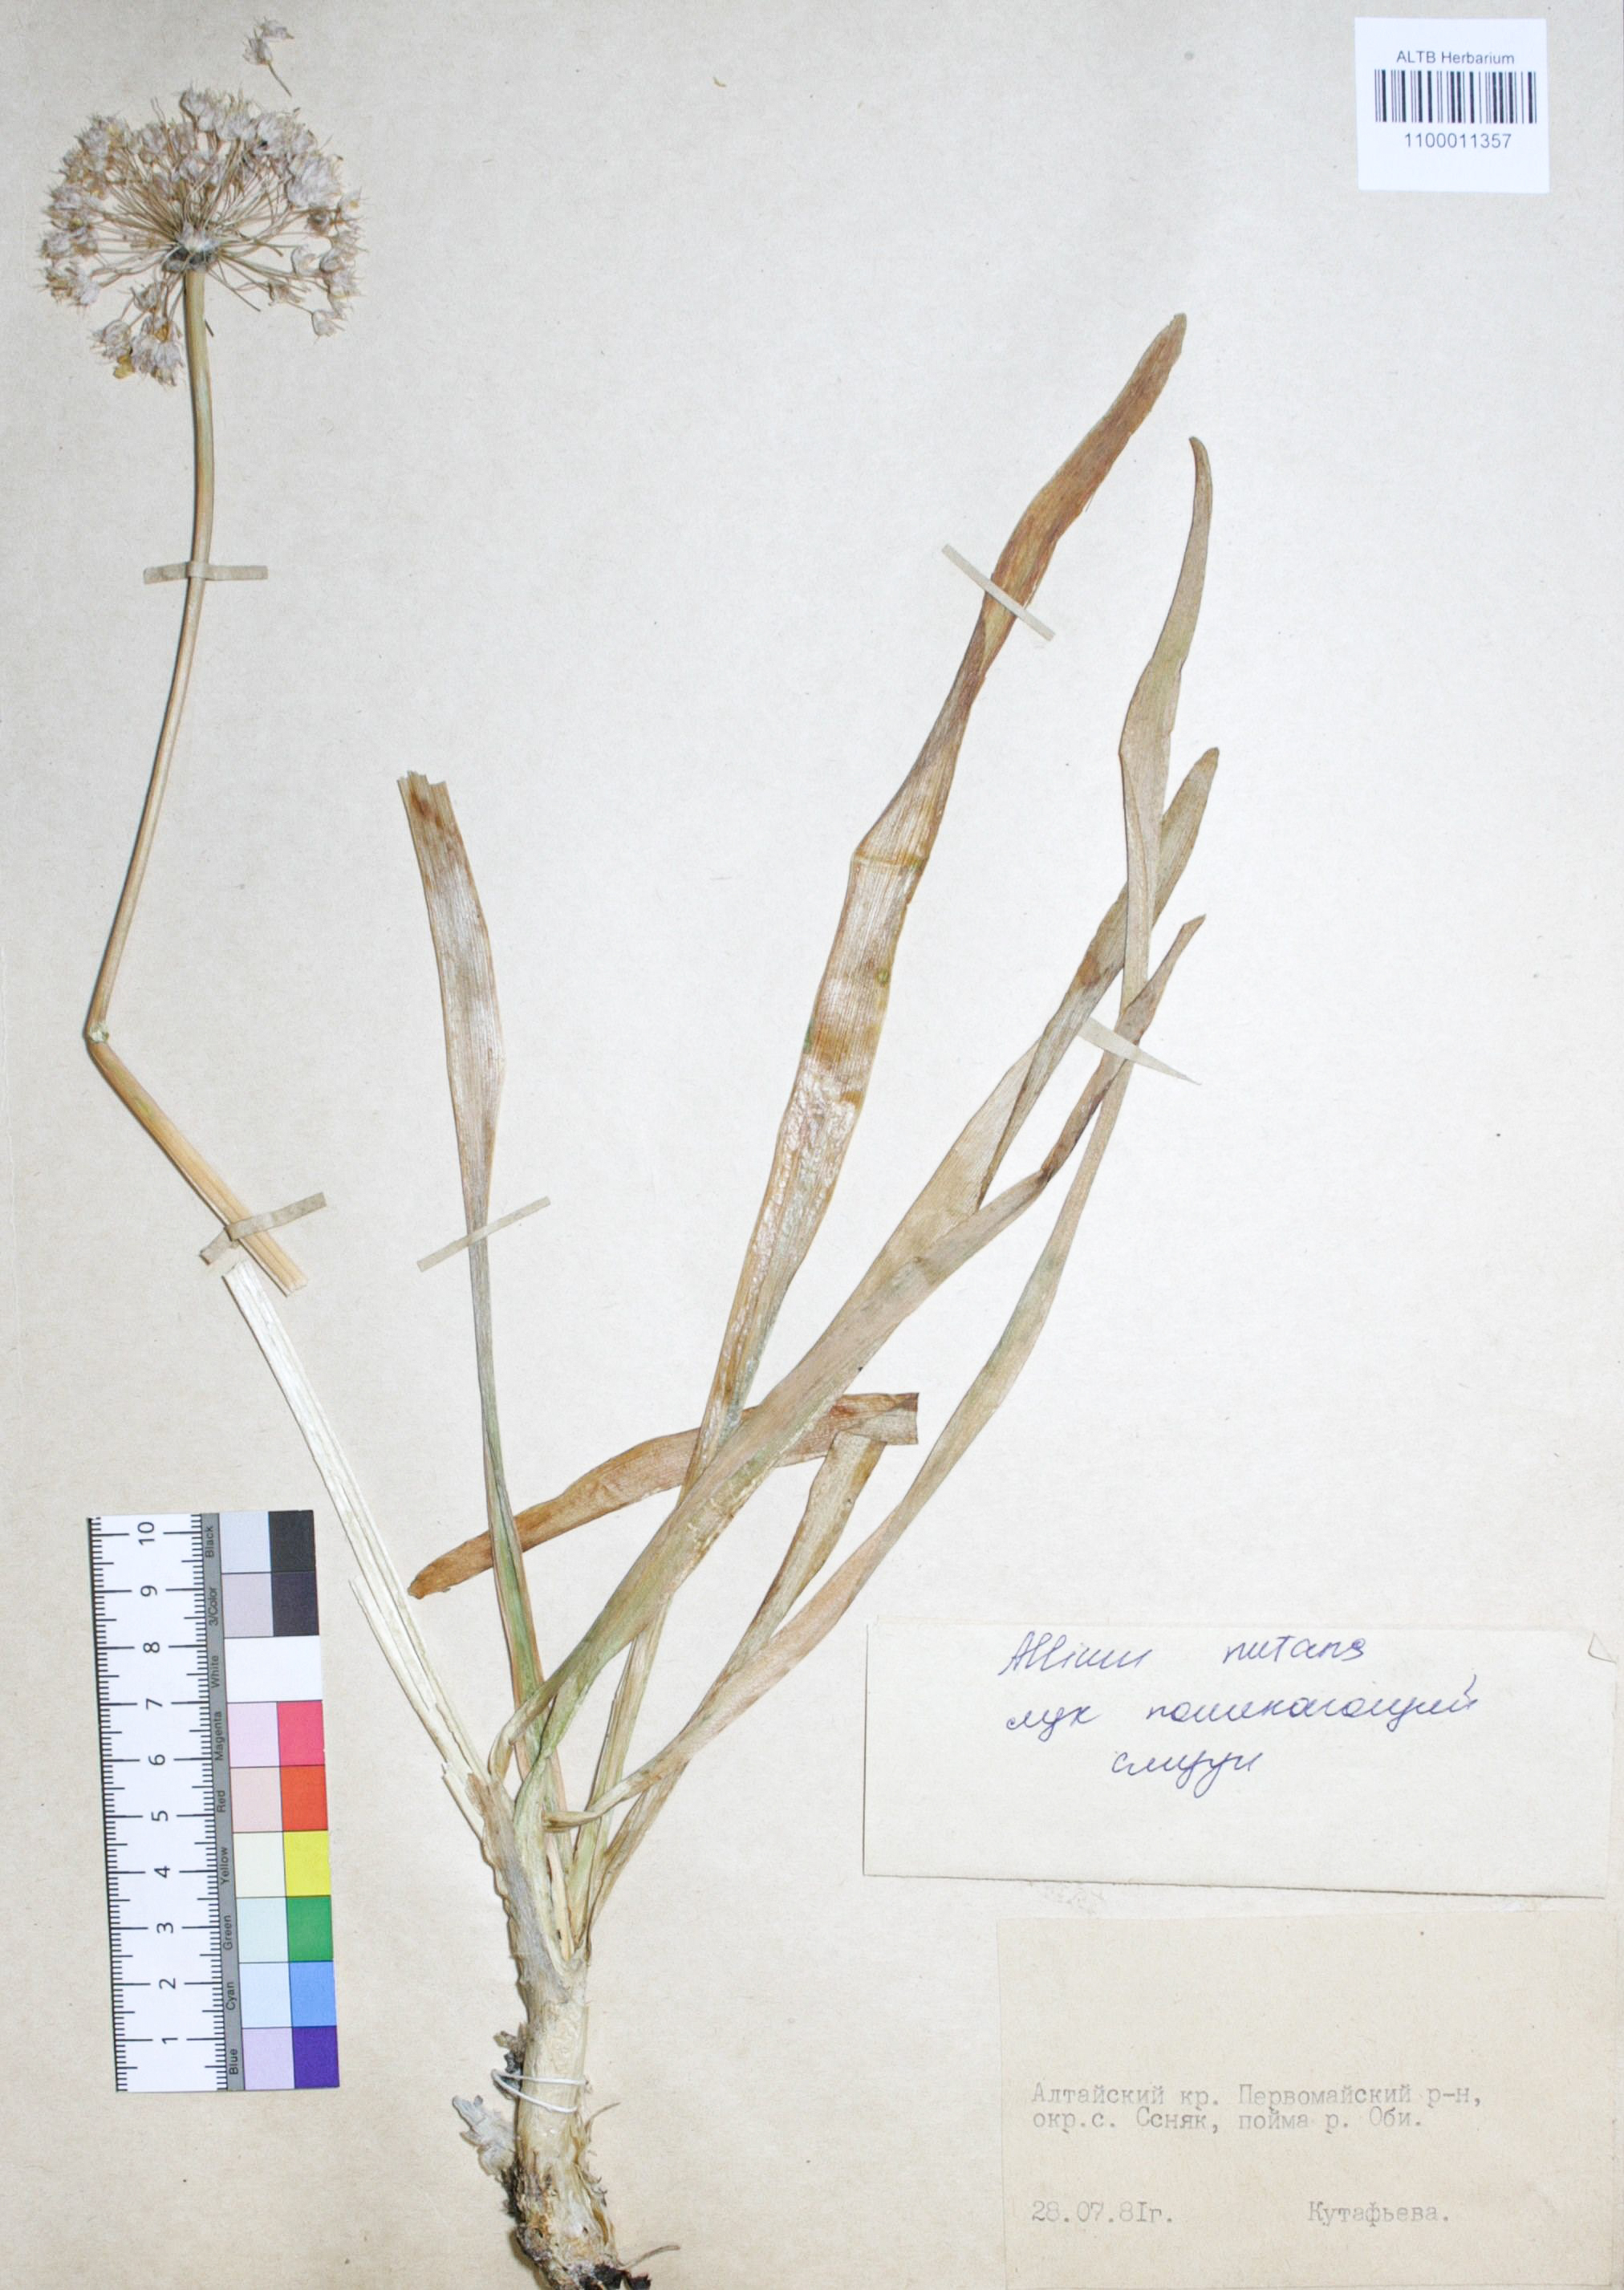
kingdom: Plantae
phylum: Tracheophyta
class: Liliopsida
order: Asparagales
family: Amaryllidaceae
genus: Allium
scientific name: Allium nutans
